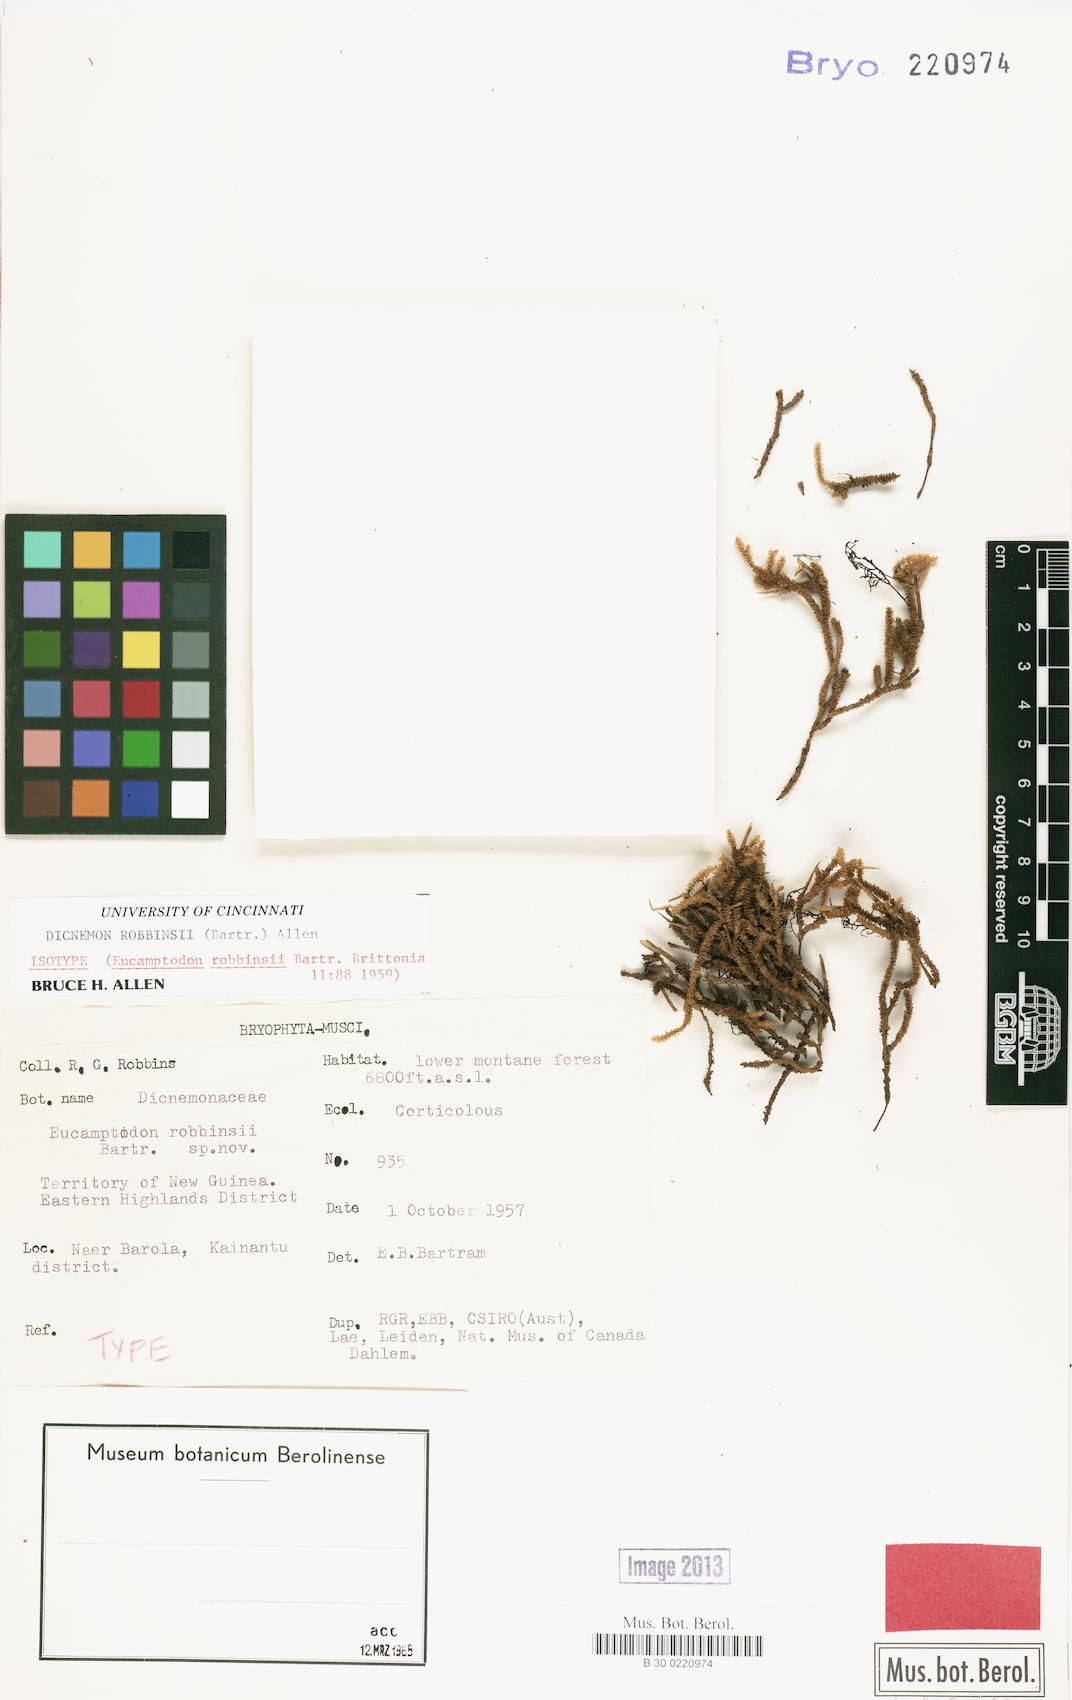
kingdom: Plantae
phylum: Bryophyta
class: Bryopsida
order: Dicranales
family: Dicranaceae
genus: Dicnemon
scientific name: Dicnemon robbinsii
